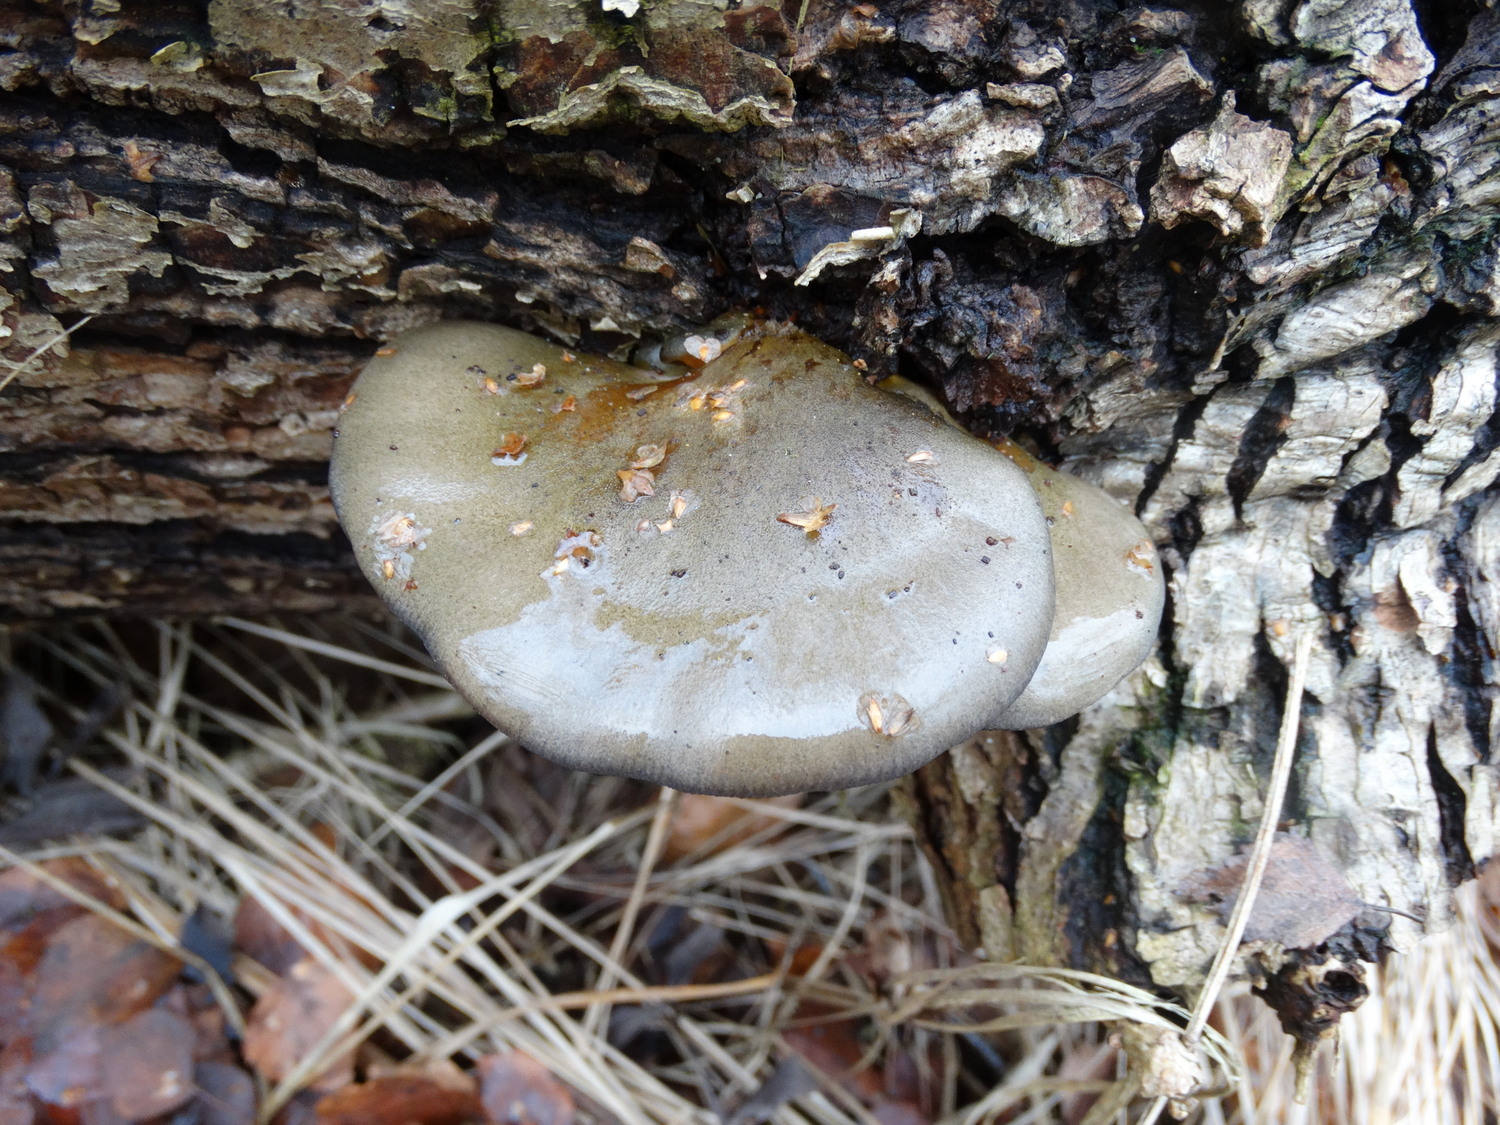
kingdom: Fungi
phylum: Basidiomycota
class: Agaricomycetes
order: Agaricales
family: Sarcomyxaceae
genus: Sarcomyxa
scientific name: Sarcomyxa serotina
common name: gummihat
